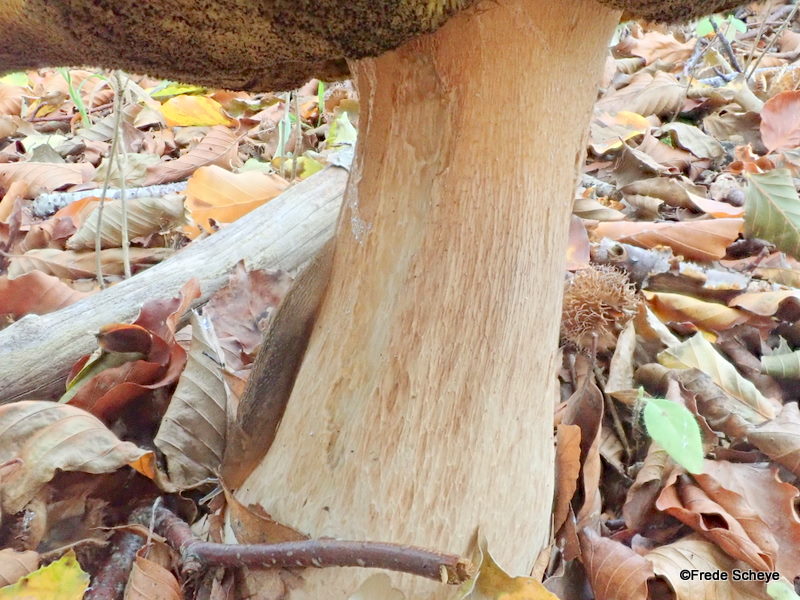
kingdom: Fungi
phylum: Basidiomycota
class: Agaricomycetes
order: Boletales
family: Boletaceae
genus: Boletus
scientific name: Boletus edulis
